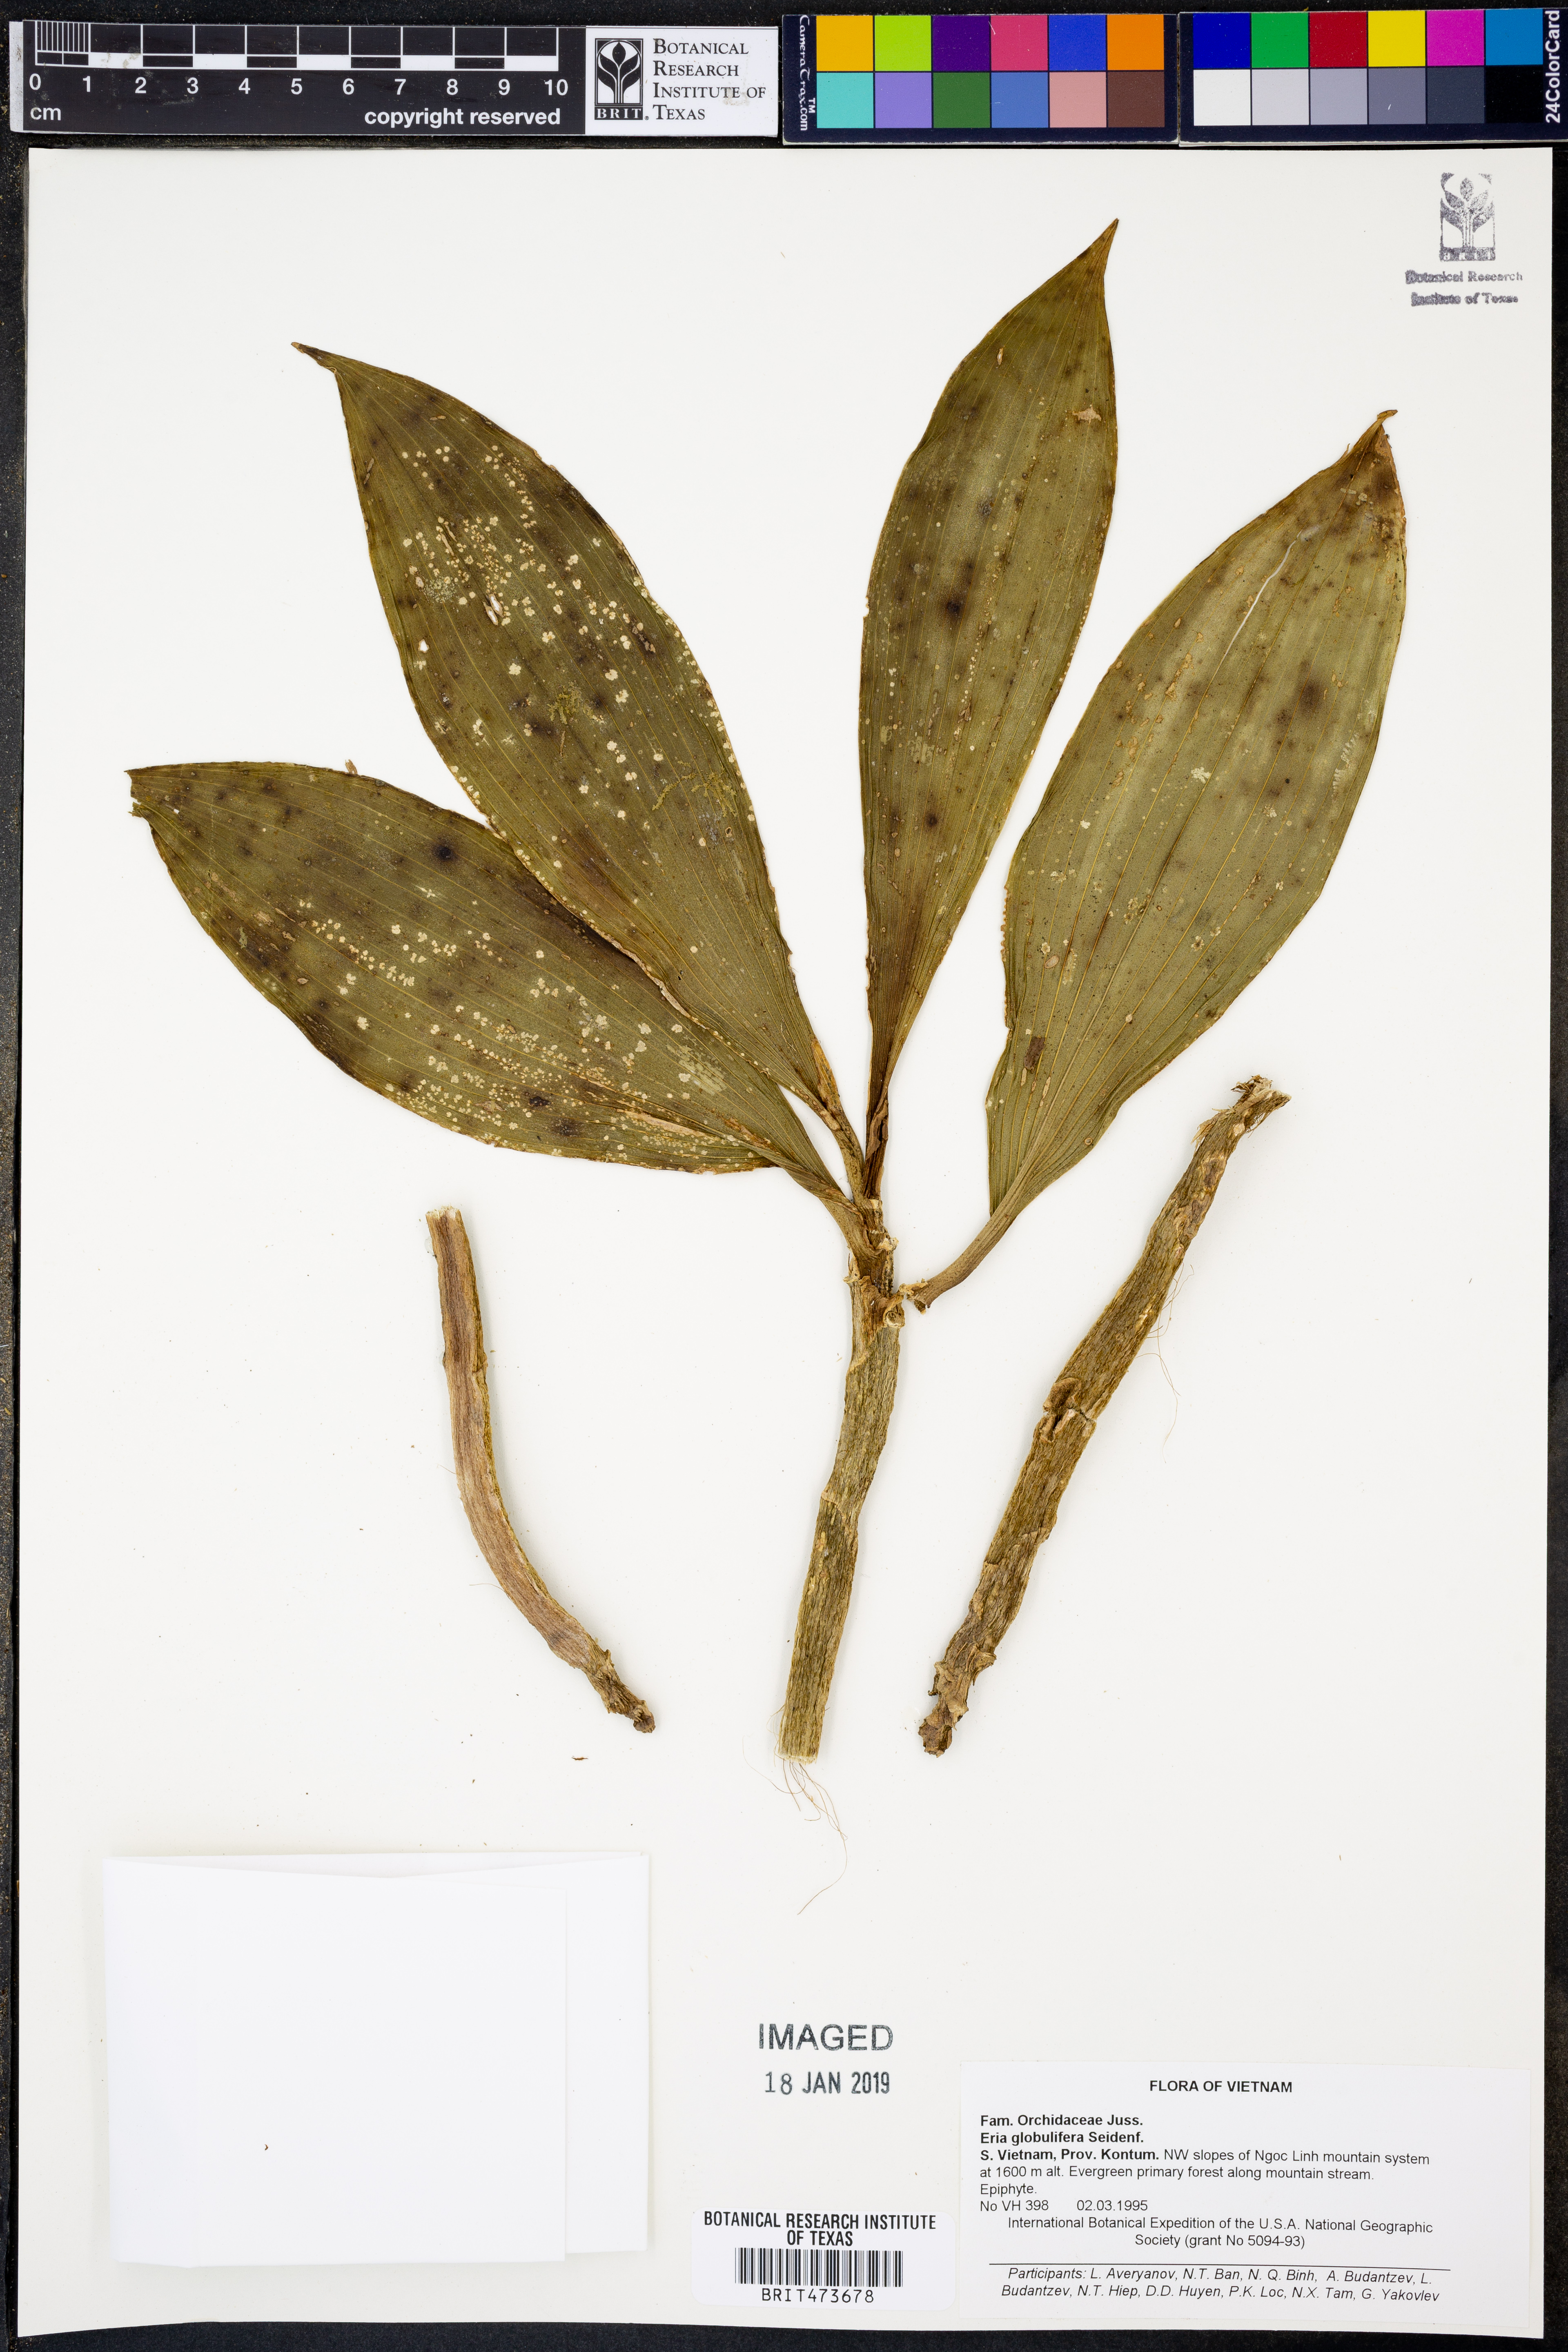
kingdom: Plantae
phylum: Tracheophyta
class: Liliopsida
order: Asparagales
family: Orchidaceae
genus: Pinalia
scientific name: Pinalia globulifera
